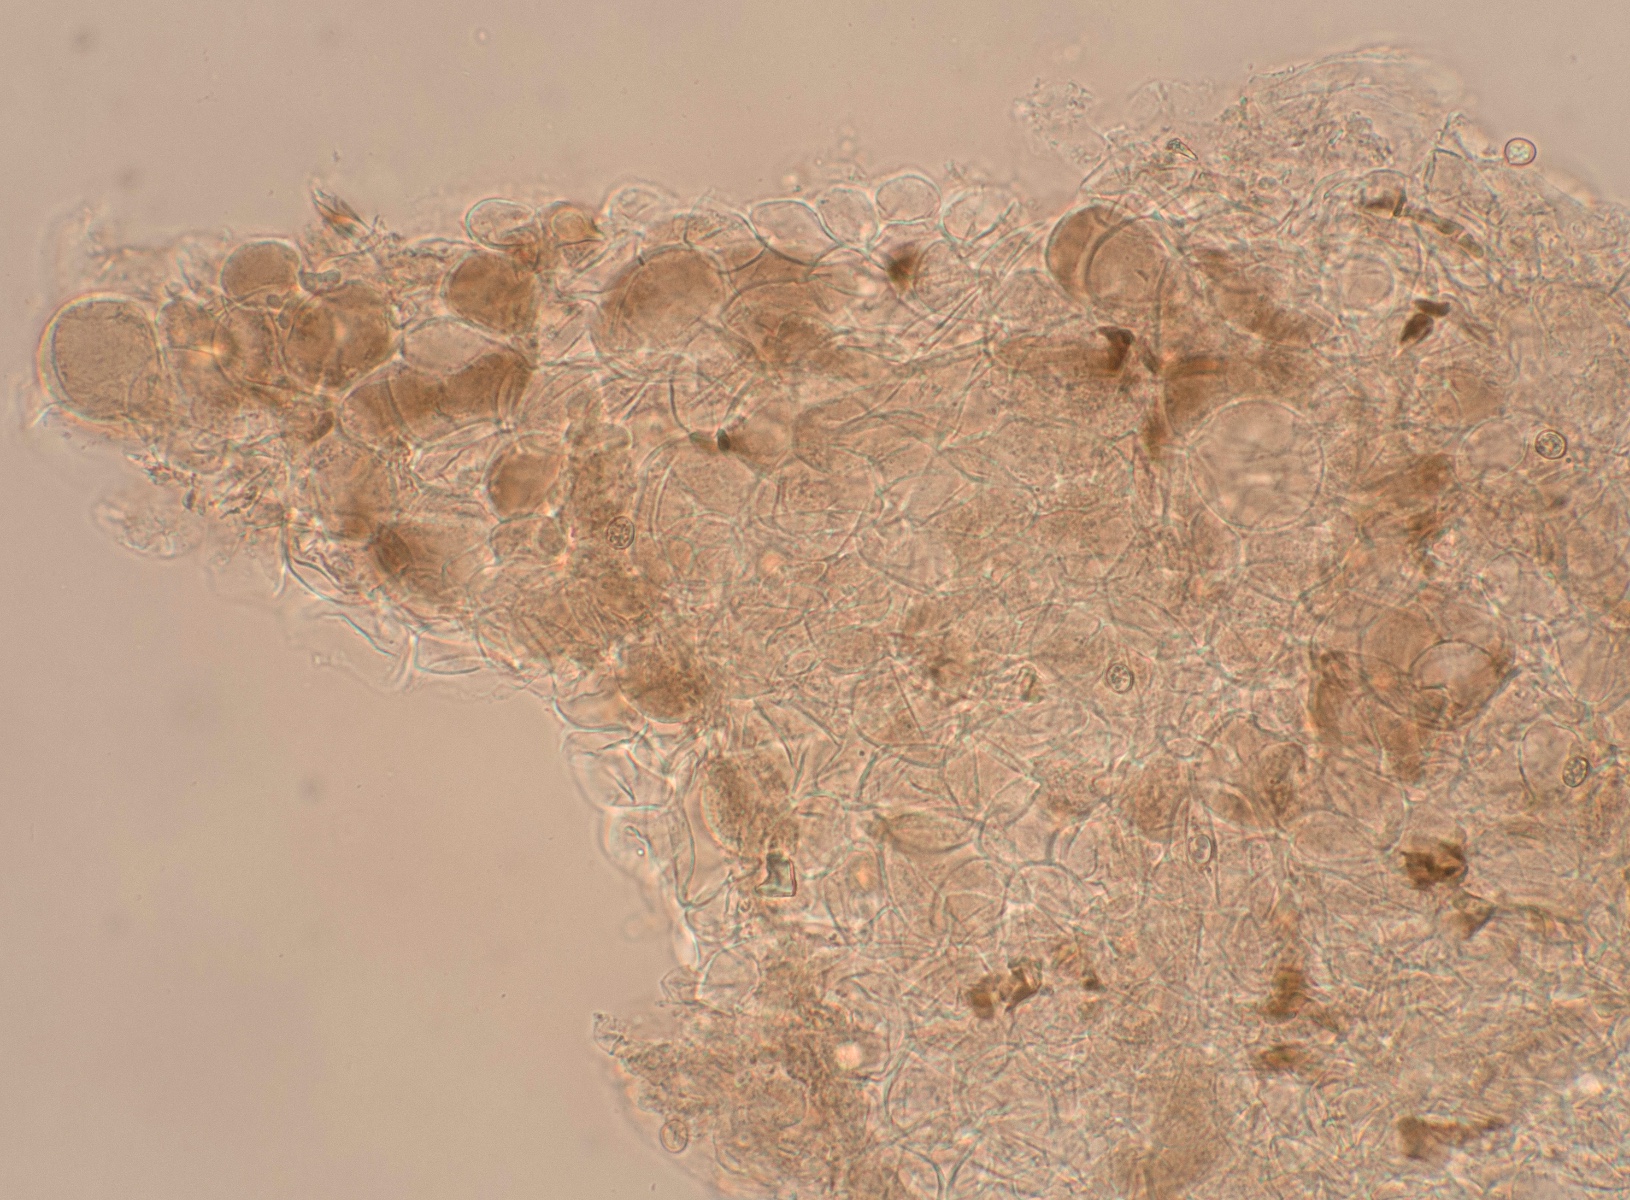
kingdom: Fungi
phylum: Basidiomycota
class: Agaricomycetes
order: Agaricales
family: Pluteaceae
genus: Pluteus
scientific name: Pluteus spinosae
